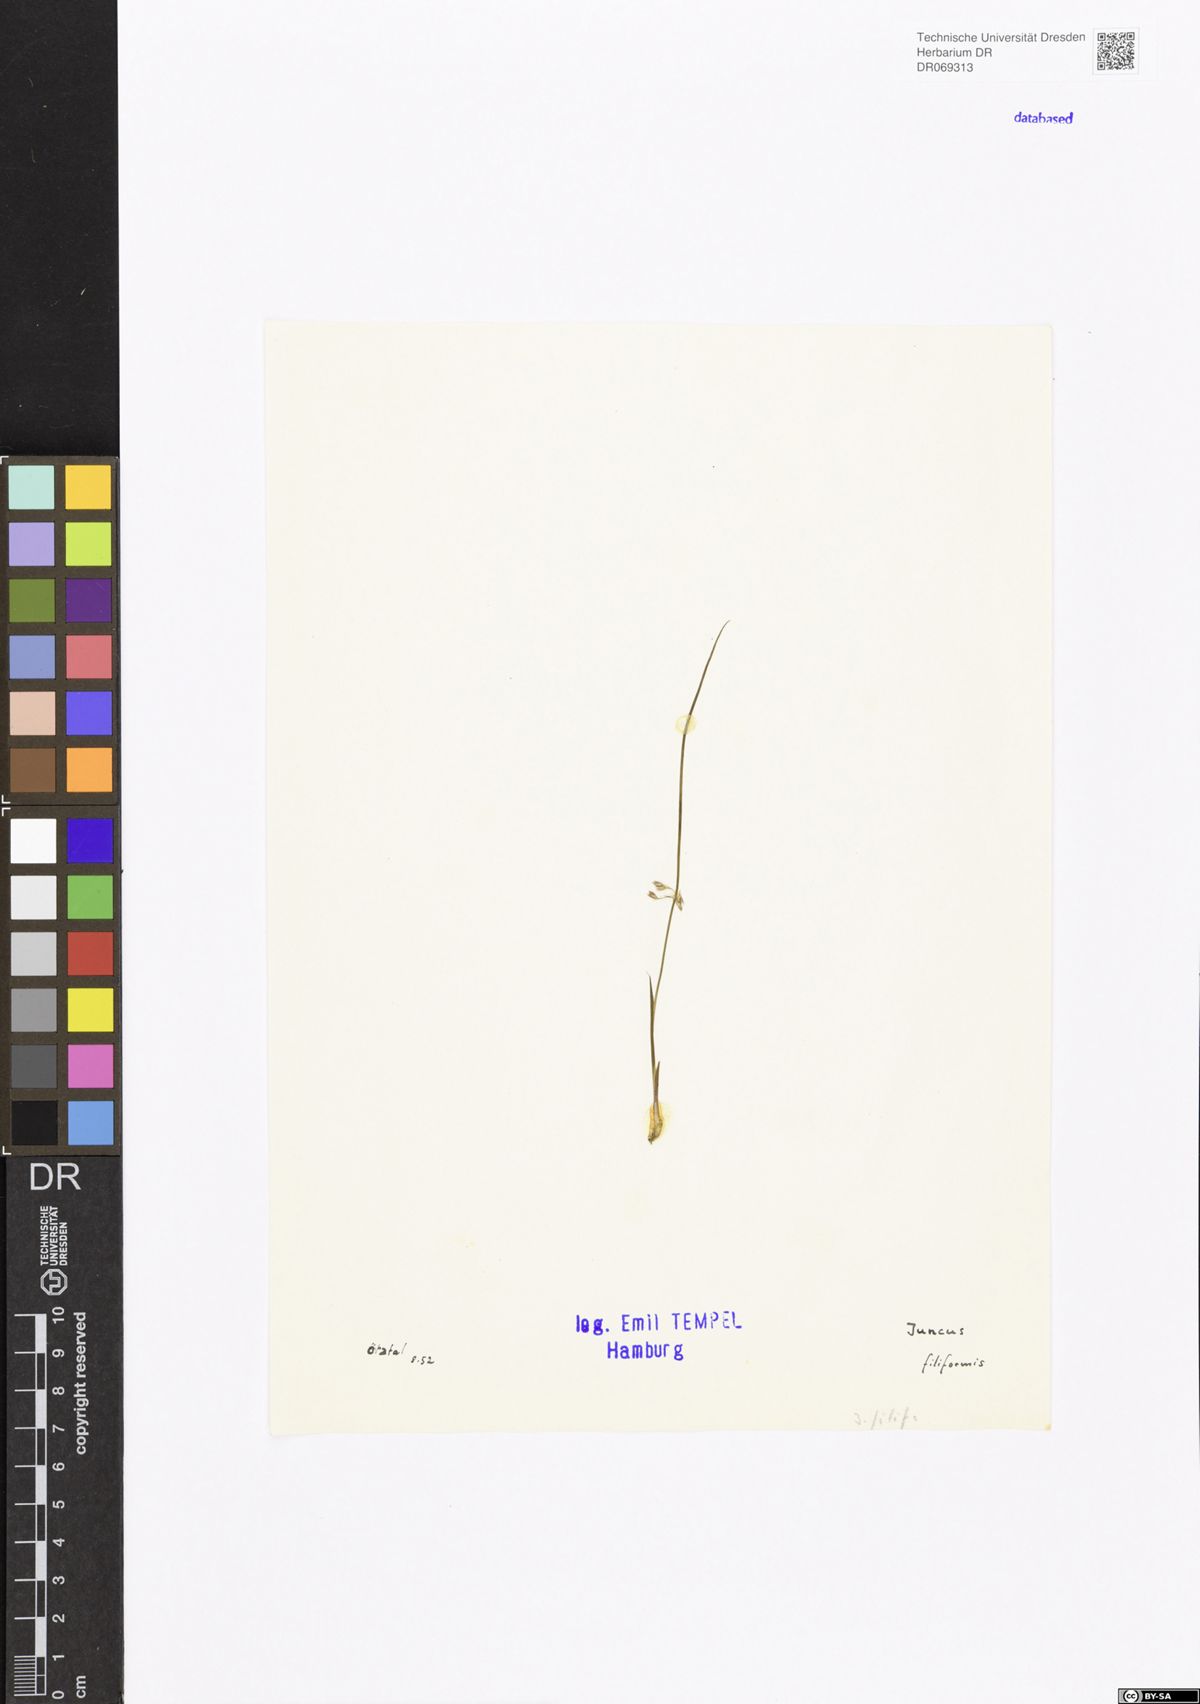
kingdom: Plantae
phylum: Tracheophyta
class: Liliopsida
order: Poales
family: Juncaceae
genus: Juncus
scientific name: Juncus filiformis
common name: Thread rush
